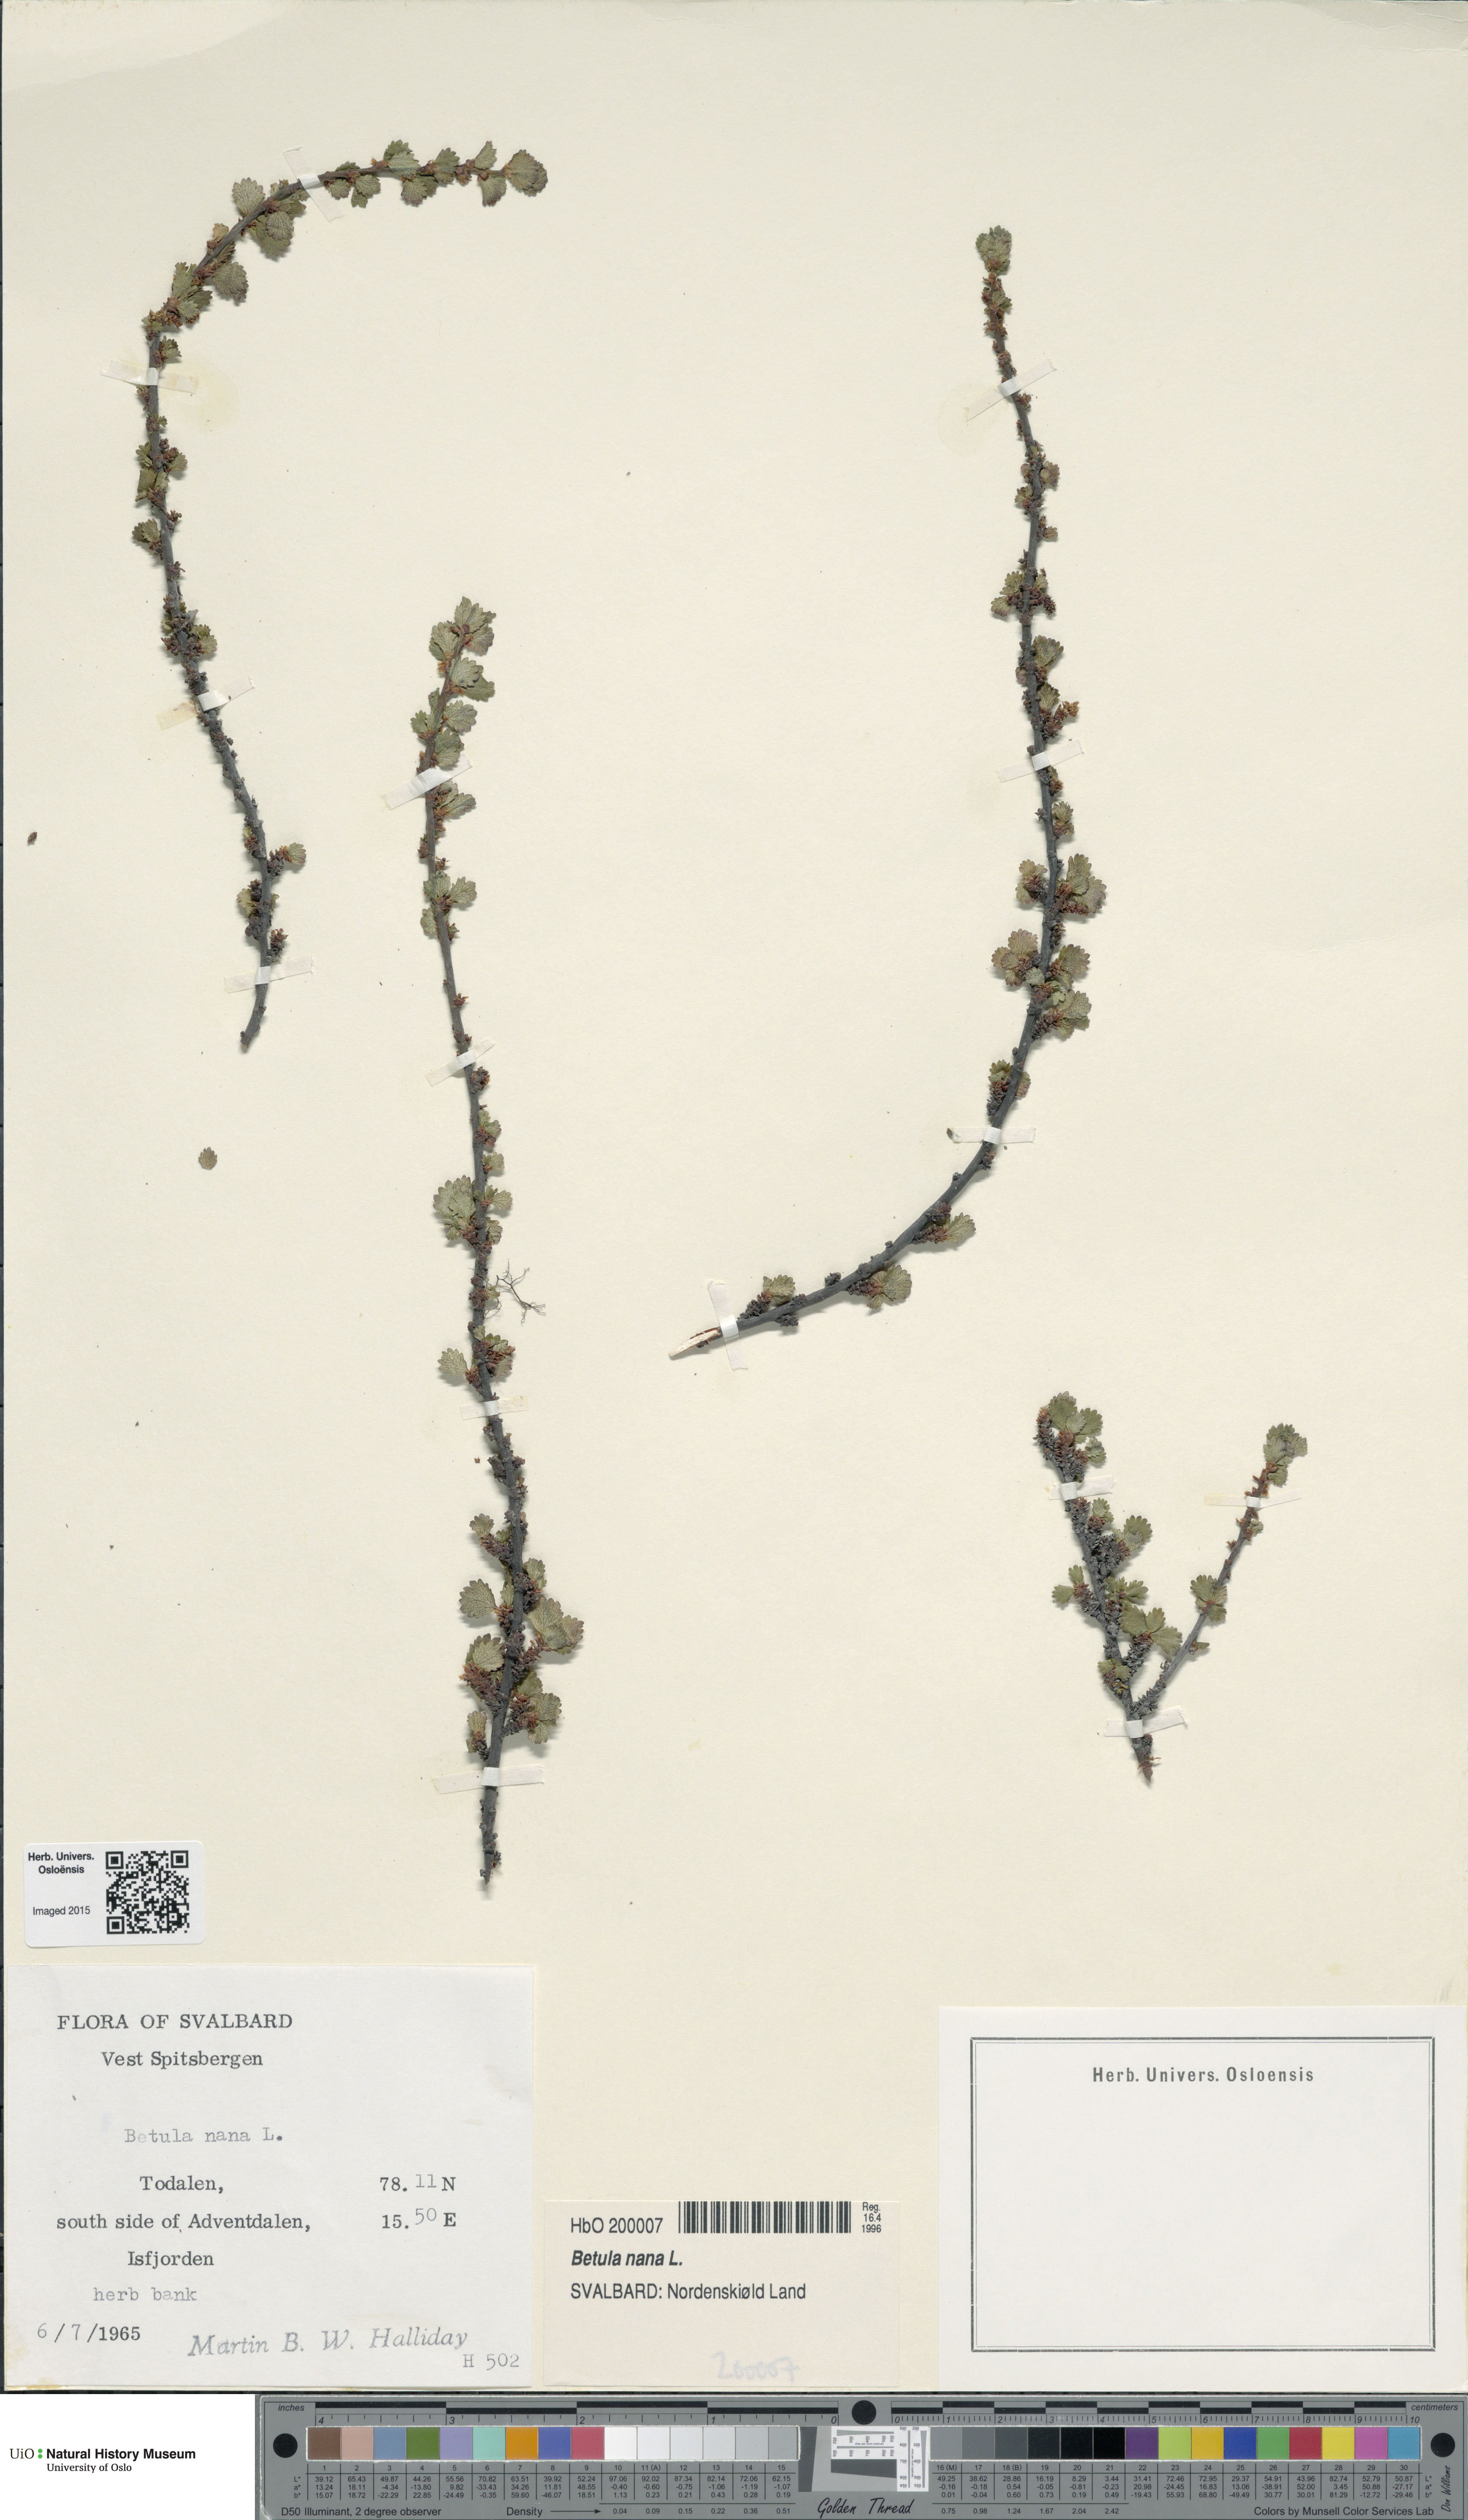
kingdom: Plantae
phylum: Tracheophyta
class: Magnoliopsida
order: Fagales
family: Betulaceae
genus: Betula
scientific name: Betula nana
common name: Arctic dwarf birch
